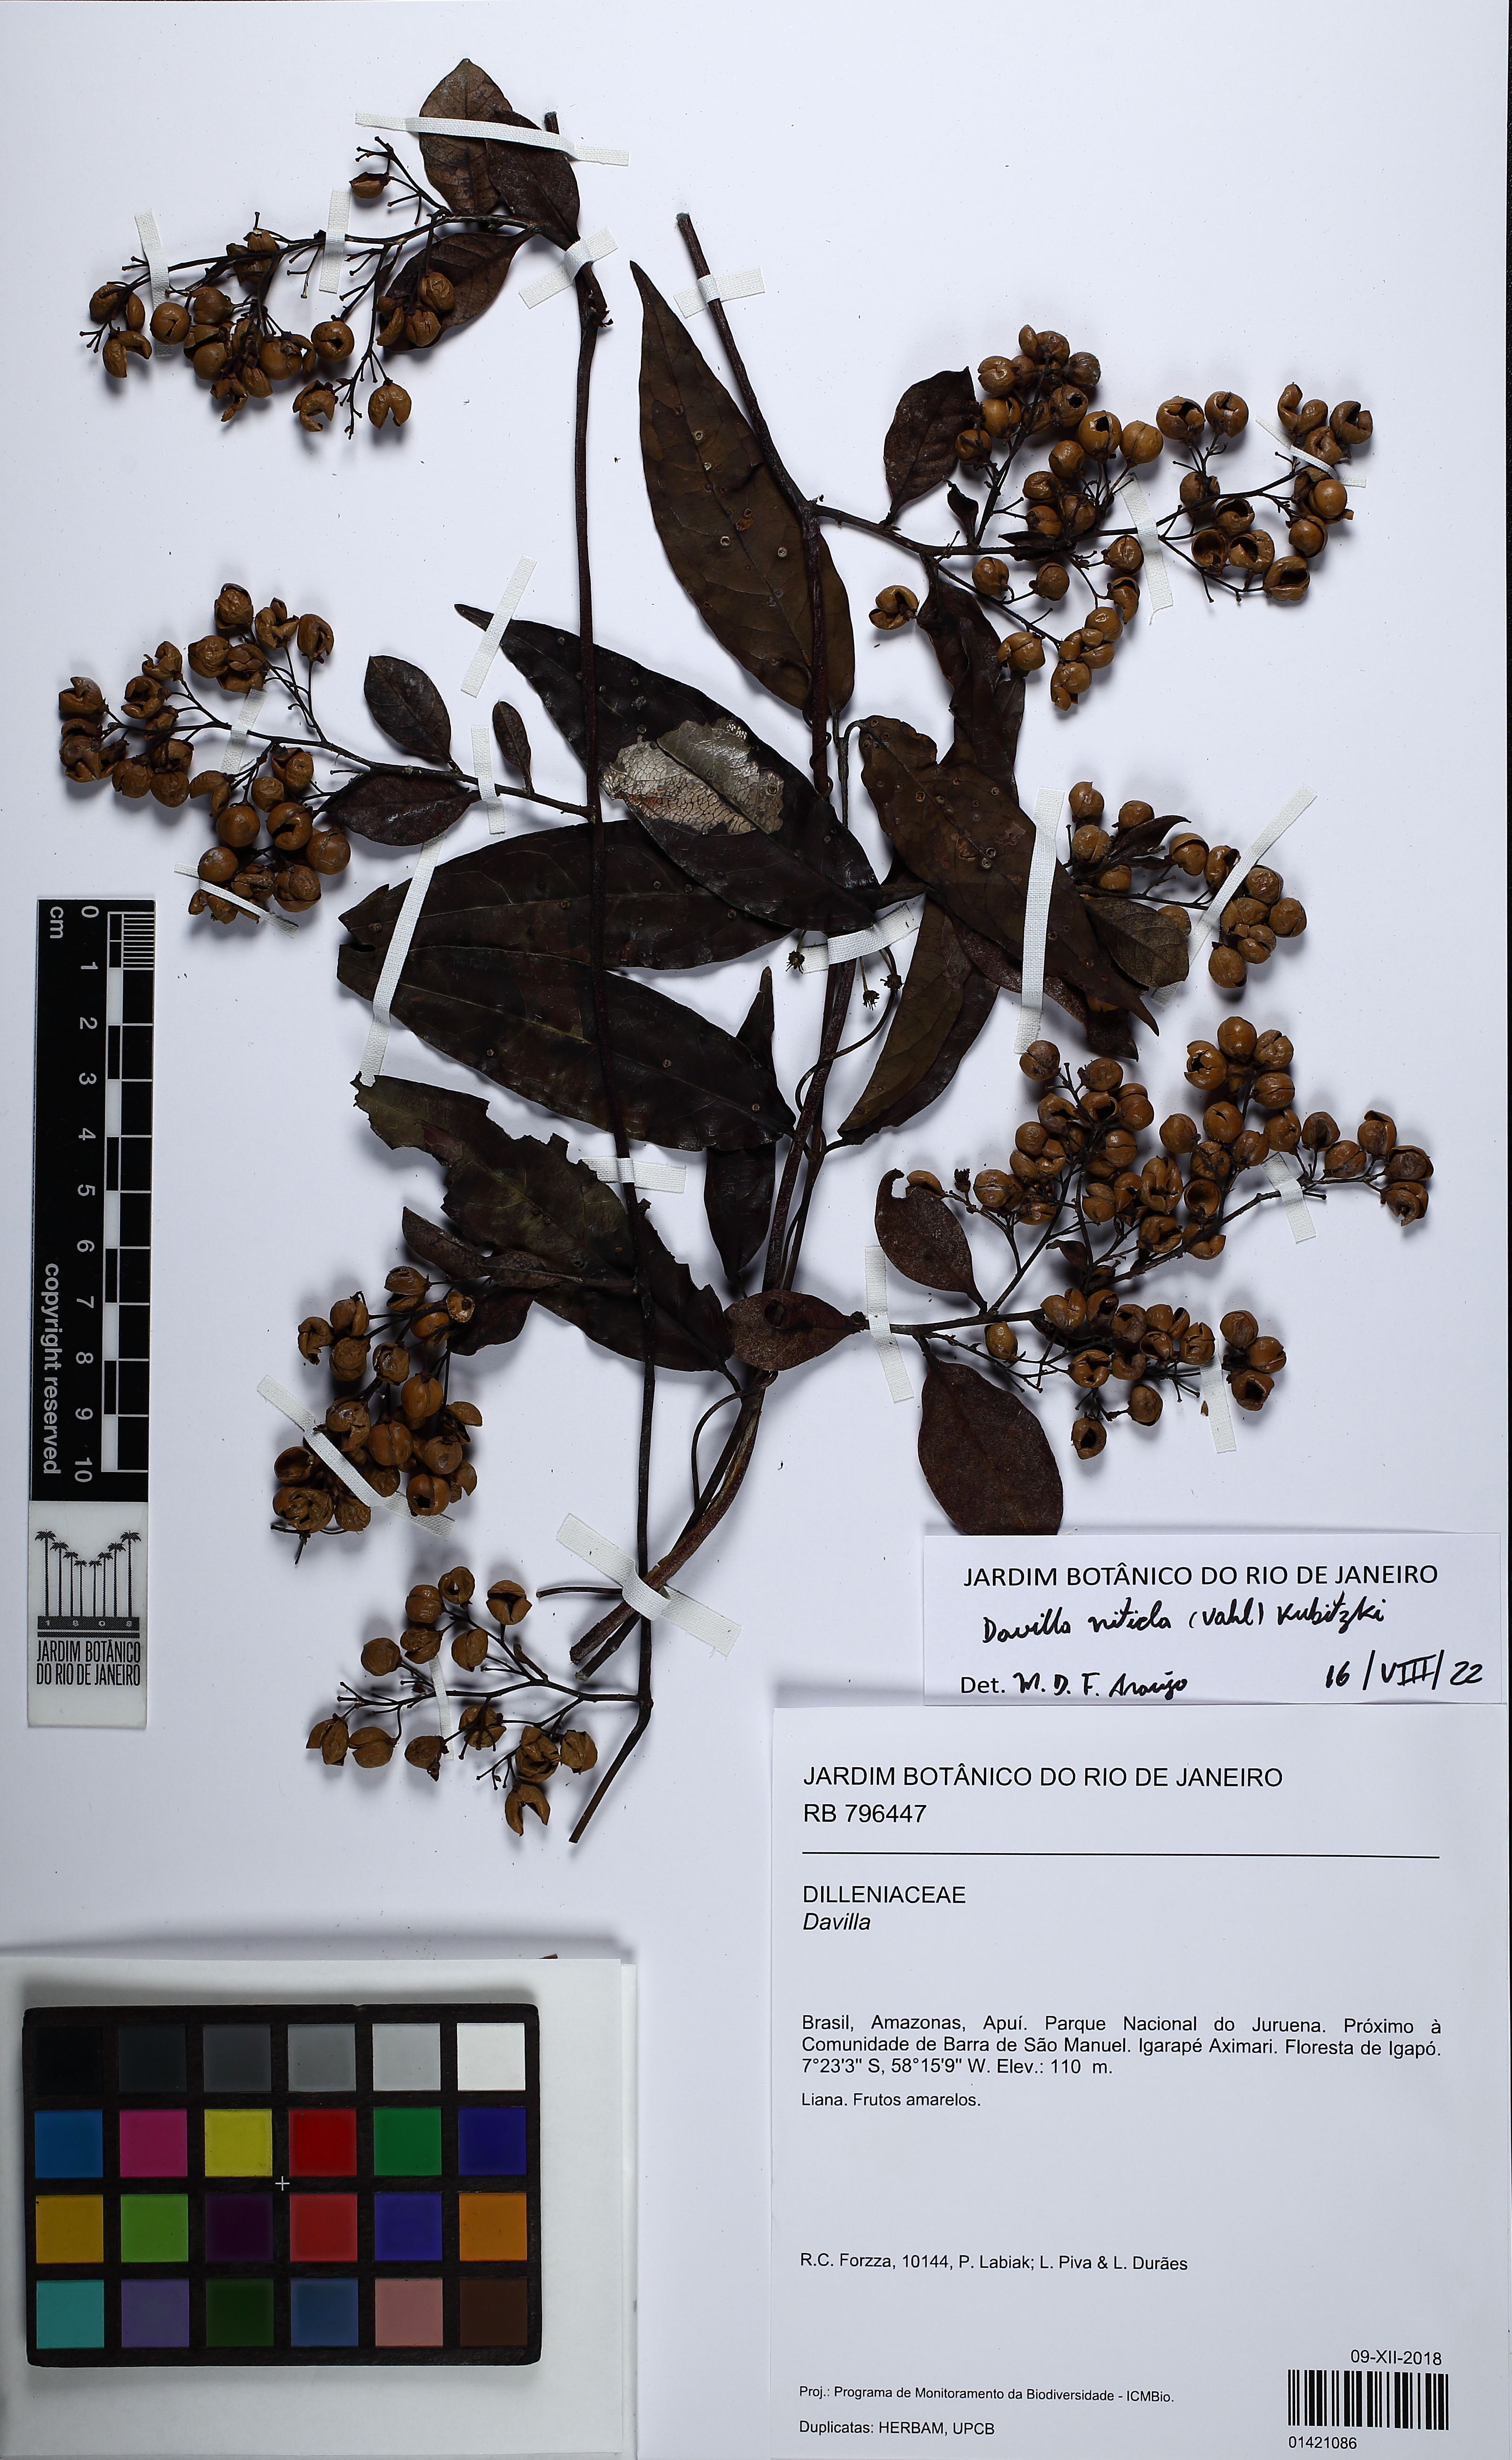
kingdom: Plantae
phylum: Tracheophyta
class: Magnoliopsida
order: Dilleniales
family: Dilleniaceae
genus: Davilla
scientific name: Davilla nitida
